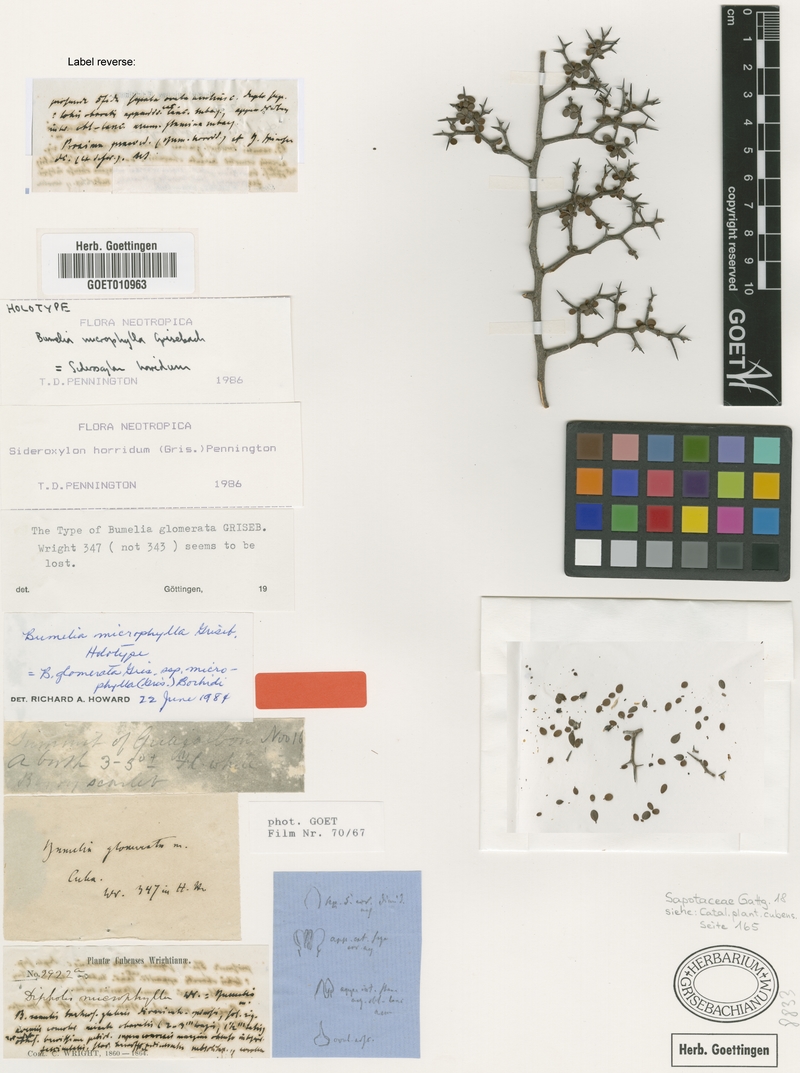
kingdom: Plantae
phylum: Tracheophyta
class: Magnoliopsida
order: Ericales
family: Sapotaceae
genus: Sideroxylon
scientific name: Sideroxylon horridum
